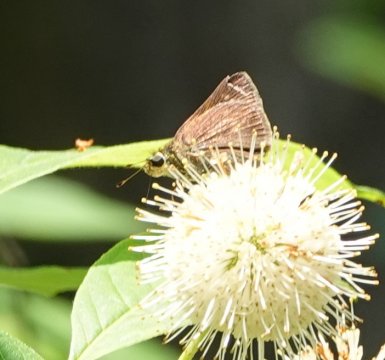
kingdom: Animalia
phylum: Arthropoda
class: Insecta
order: Lepidoptera
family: Hesperiidae
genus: Problema
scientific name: Problema byssus
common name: Byssus Skipper
